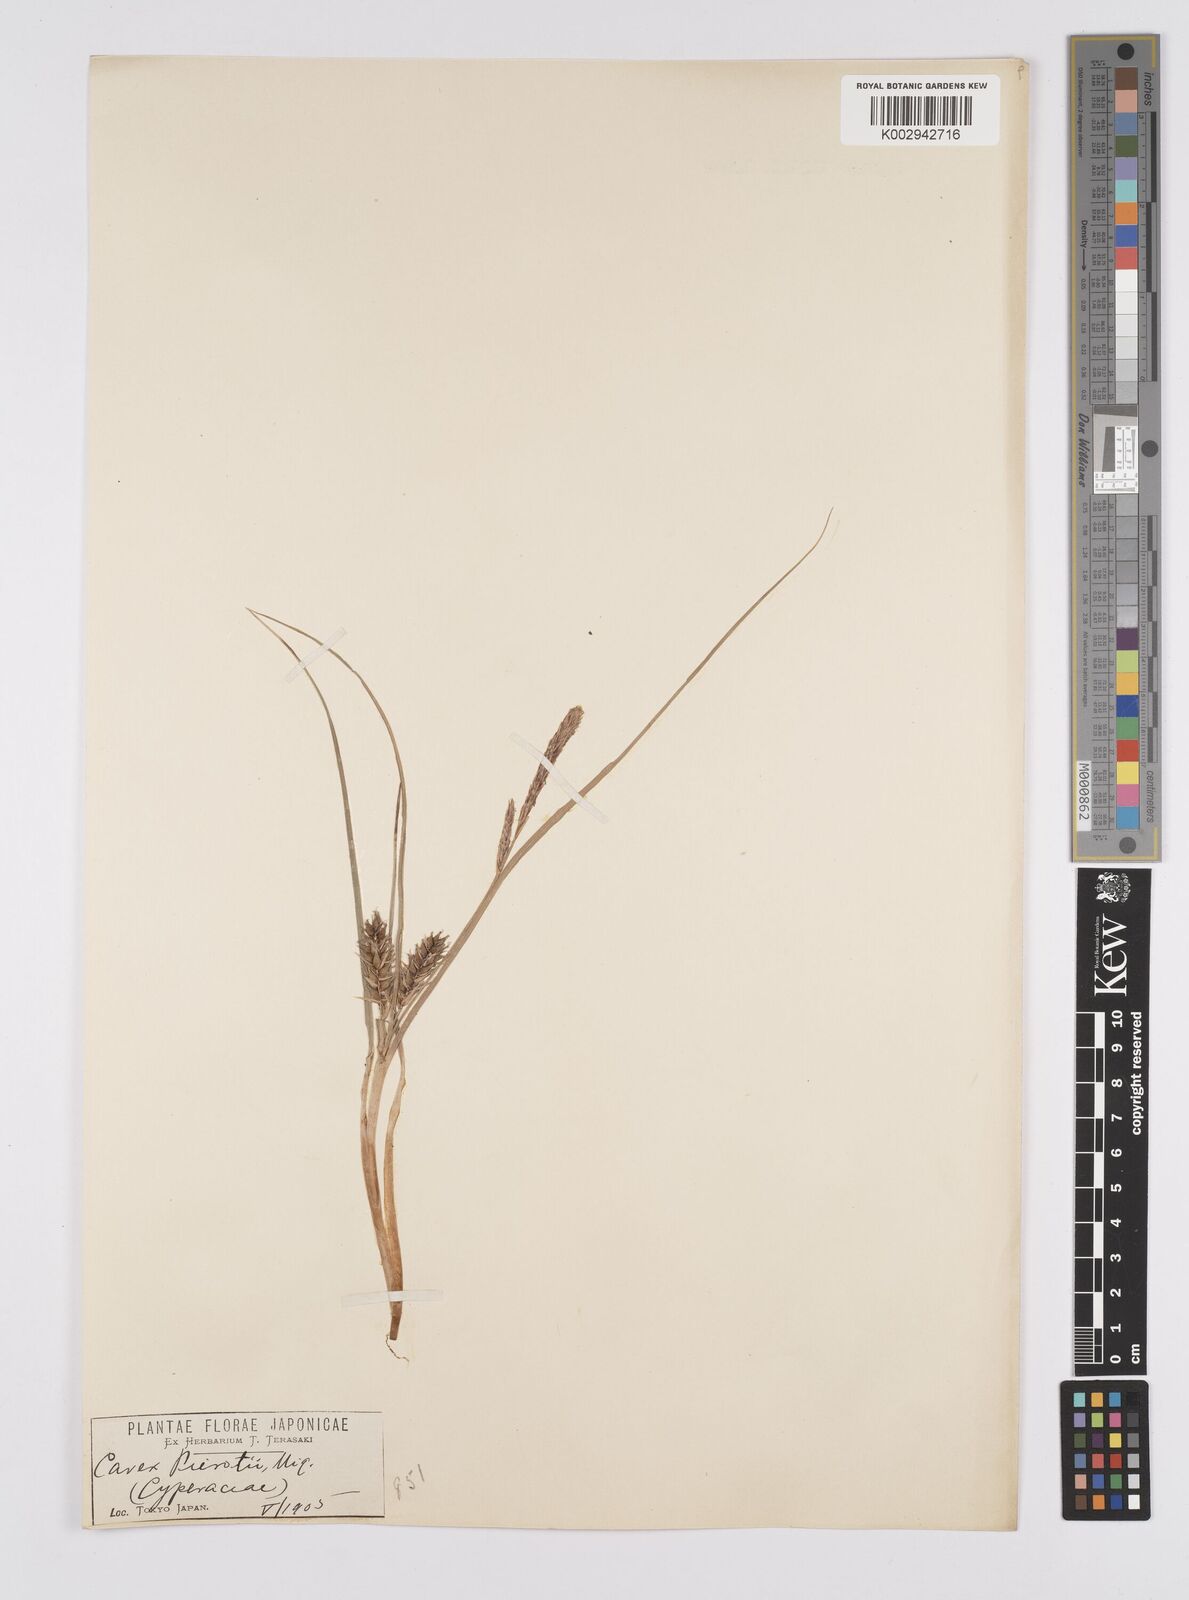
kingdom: Plantae
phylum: Tracheophyta
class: Liliopsida
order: Poales
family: Cyperaceae
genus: Carex
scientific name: Carex scabrifolia
